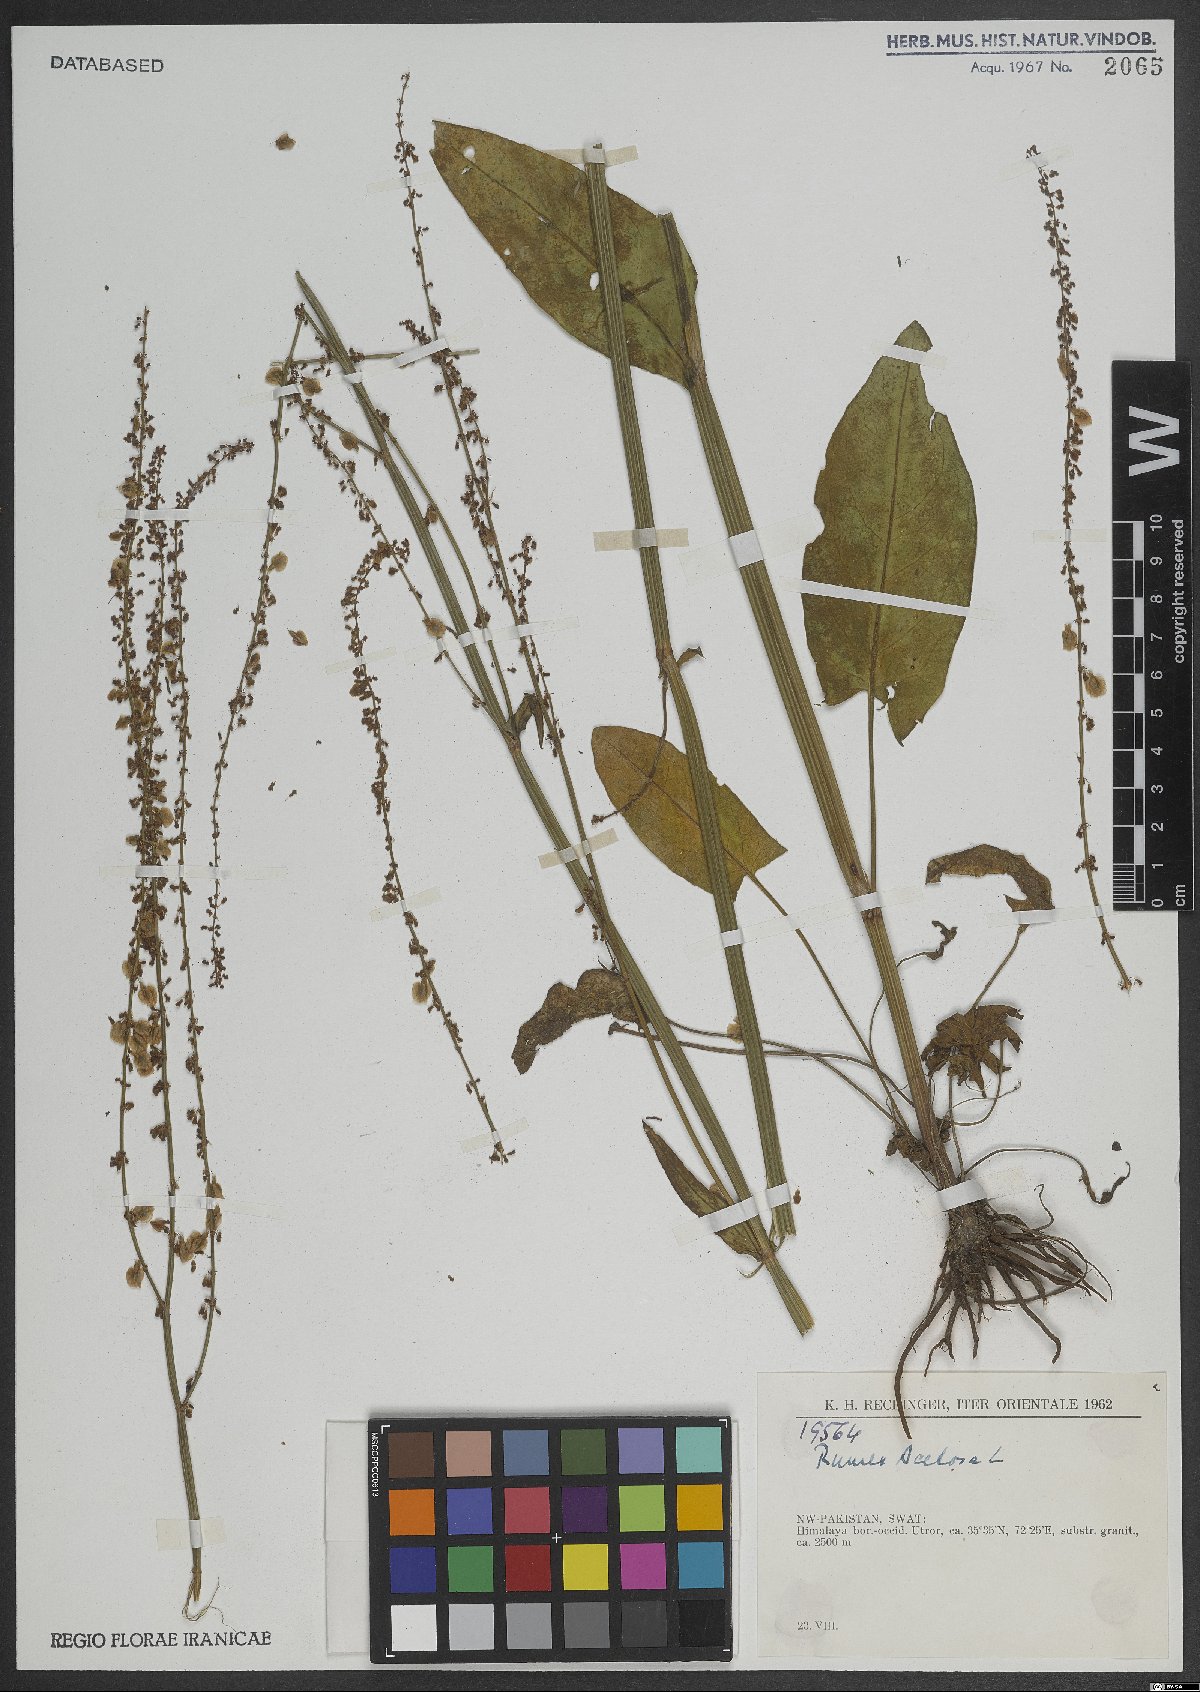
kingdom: Plantae
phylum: Tracheophyta
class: Magnoliopsida
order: Caryophyllales
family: Polygonaceae
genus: Rumex
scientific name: Rumex acetosa
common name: Garden sorrel
